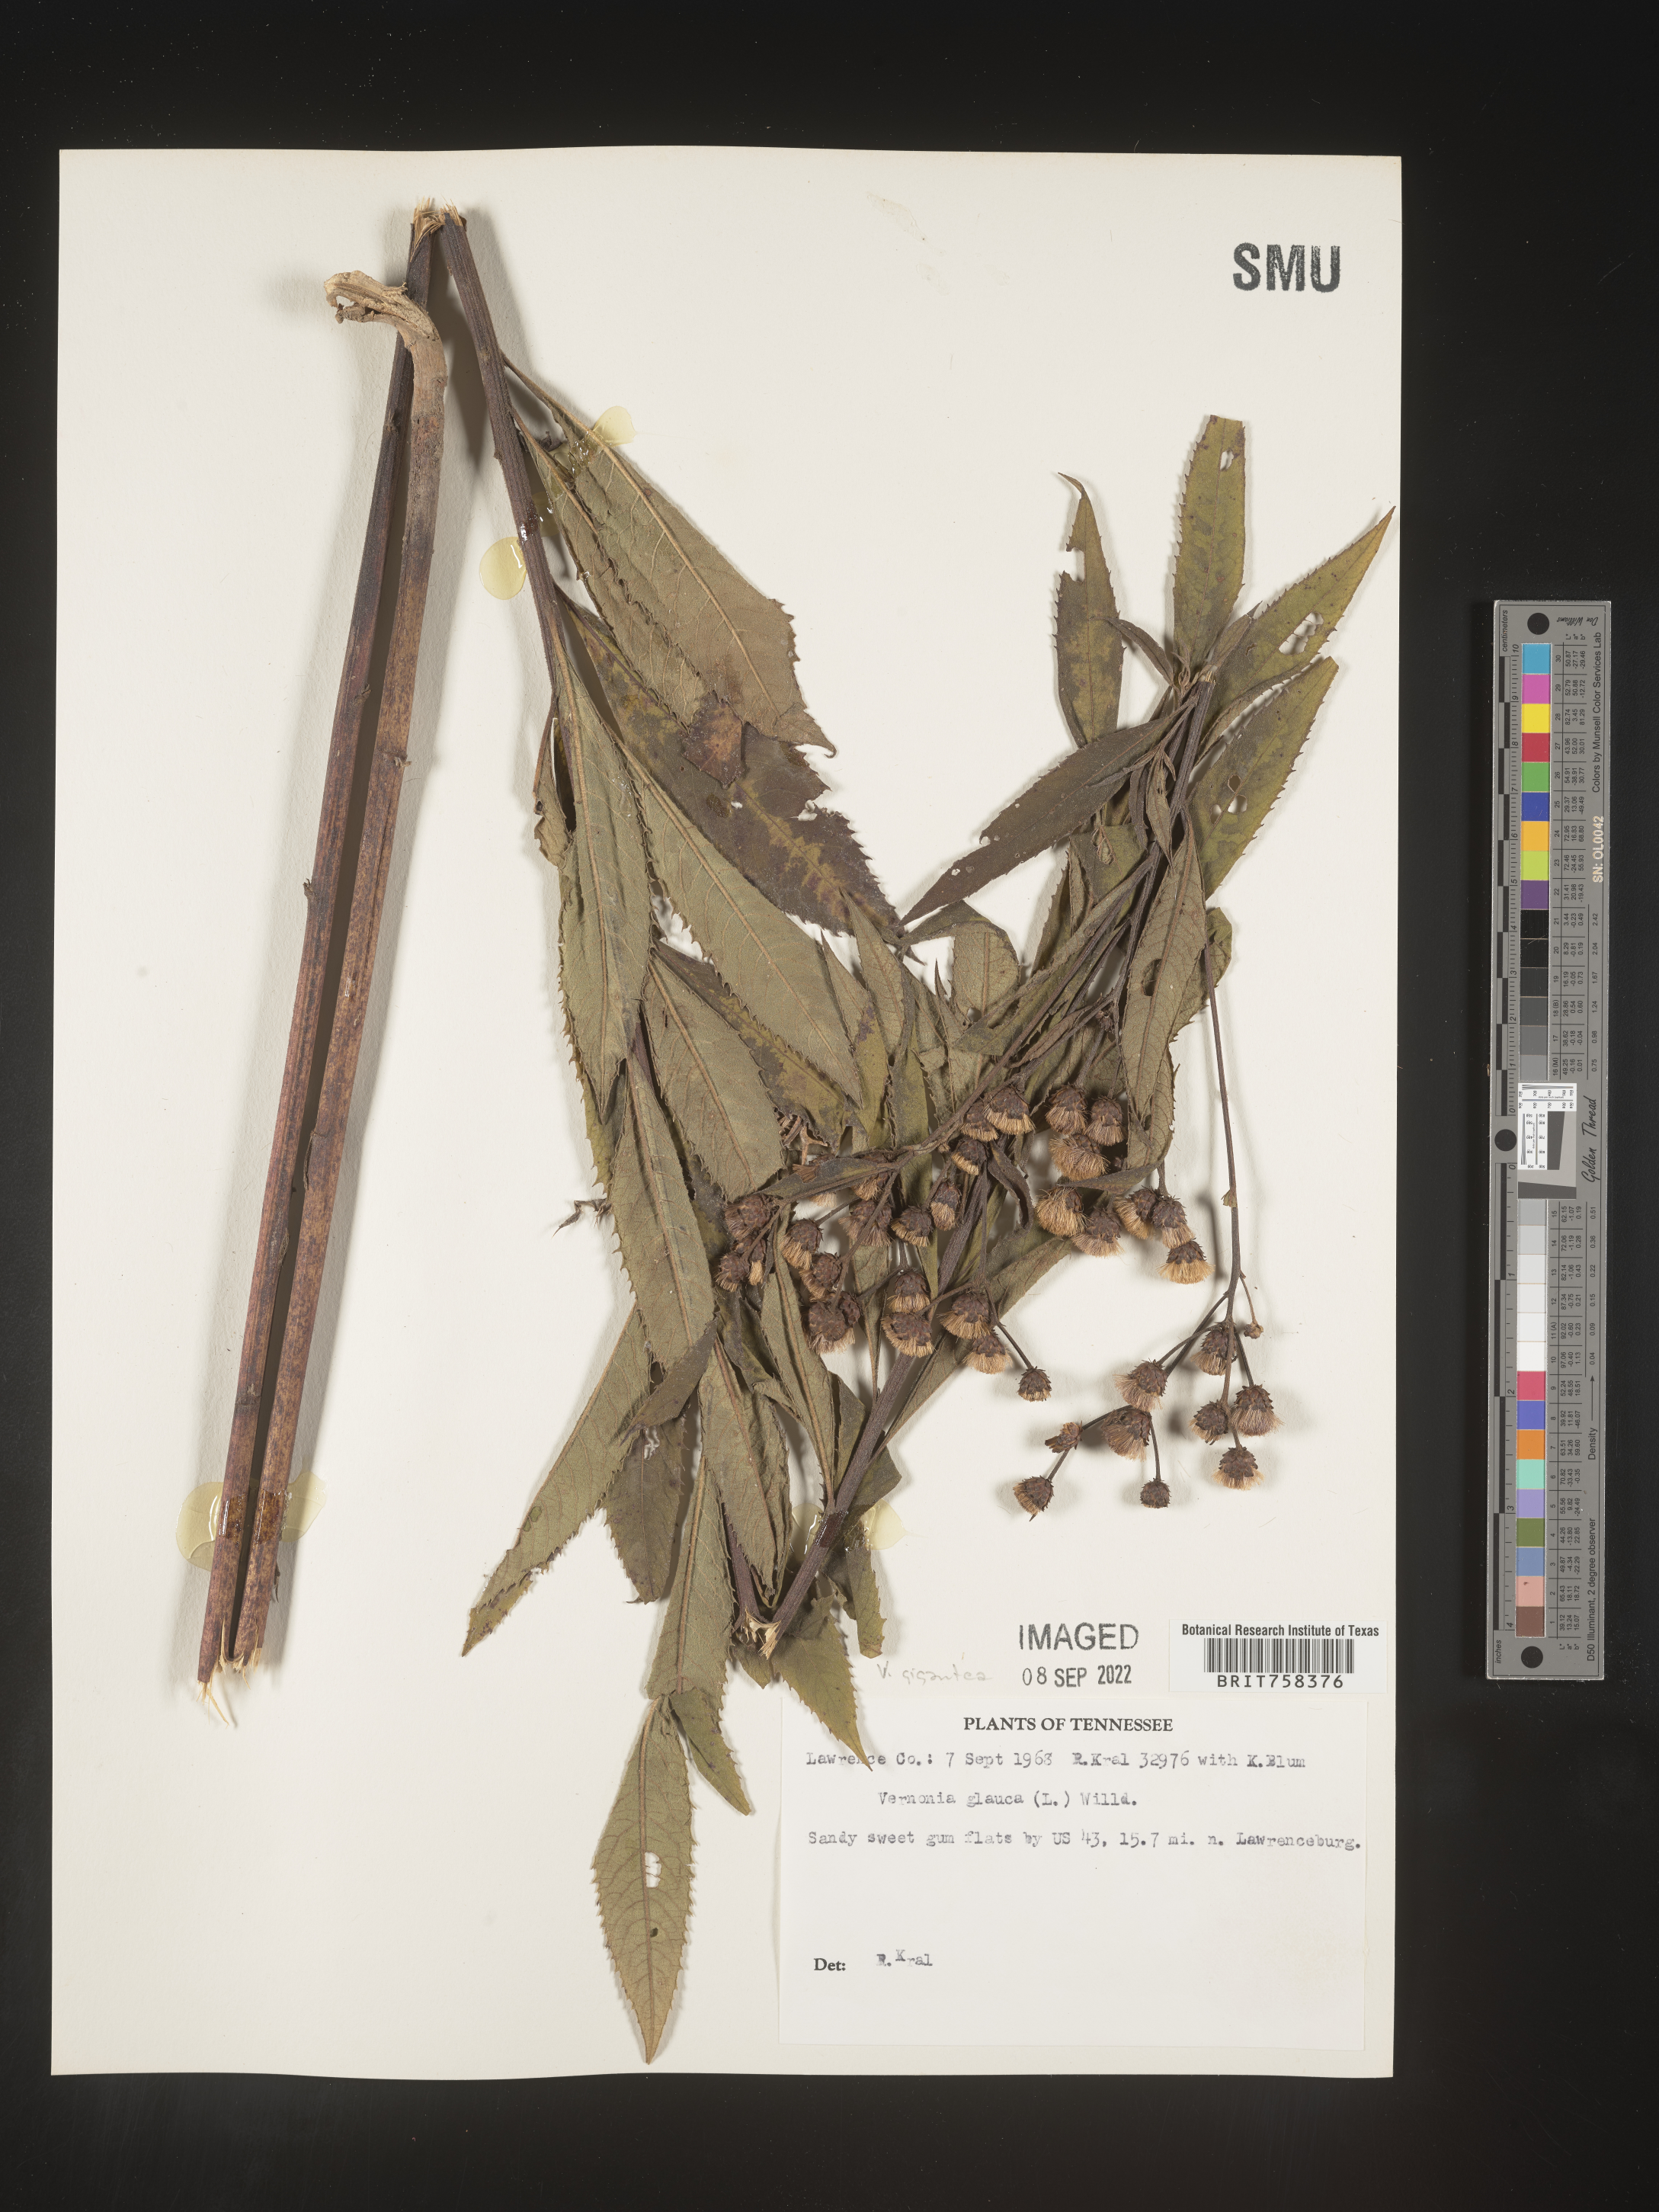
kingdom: Plantae
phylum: Tracheophyta
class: Magnoliopsida
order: Asterales
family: Asteraceae
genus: Vernonia
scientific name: Vernonia gigantea
